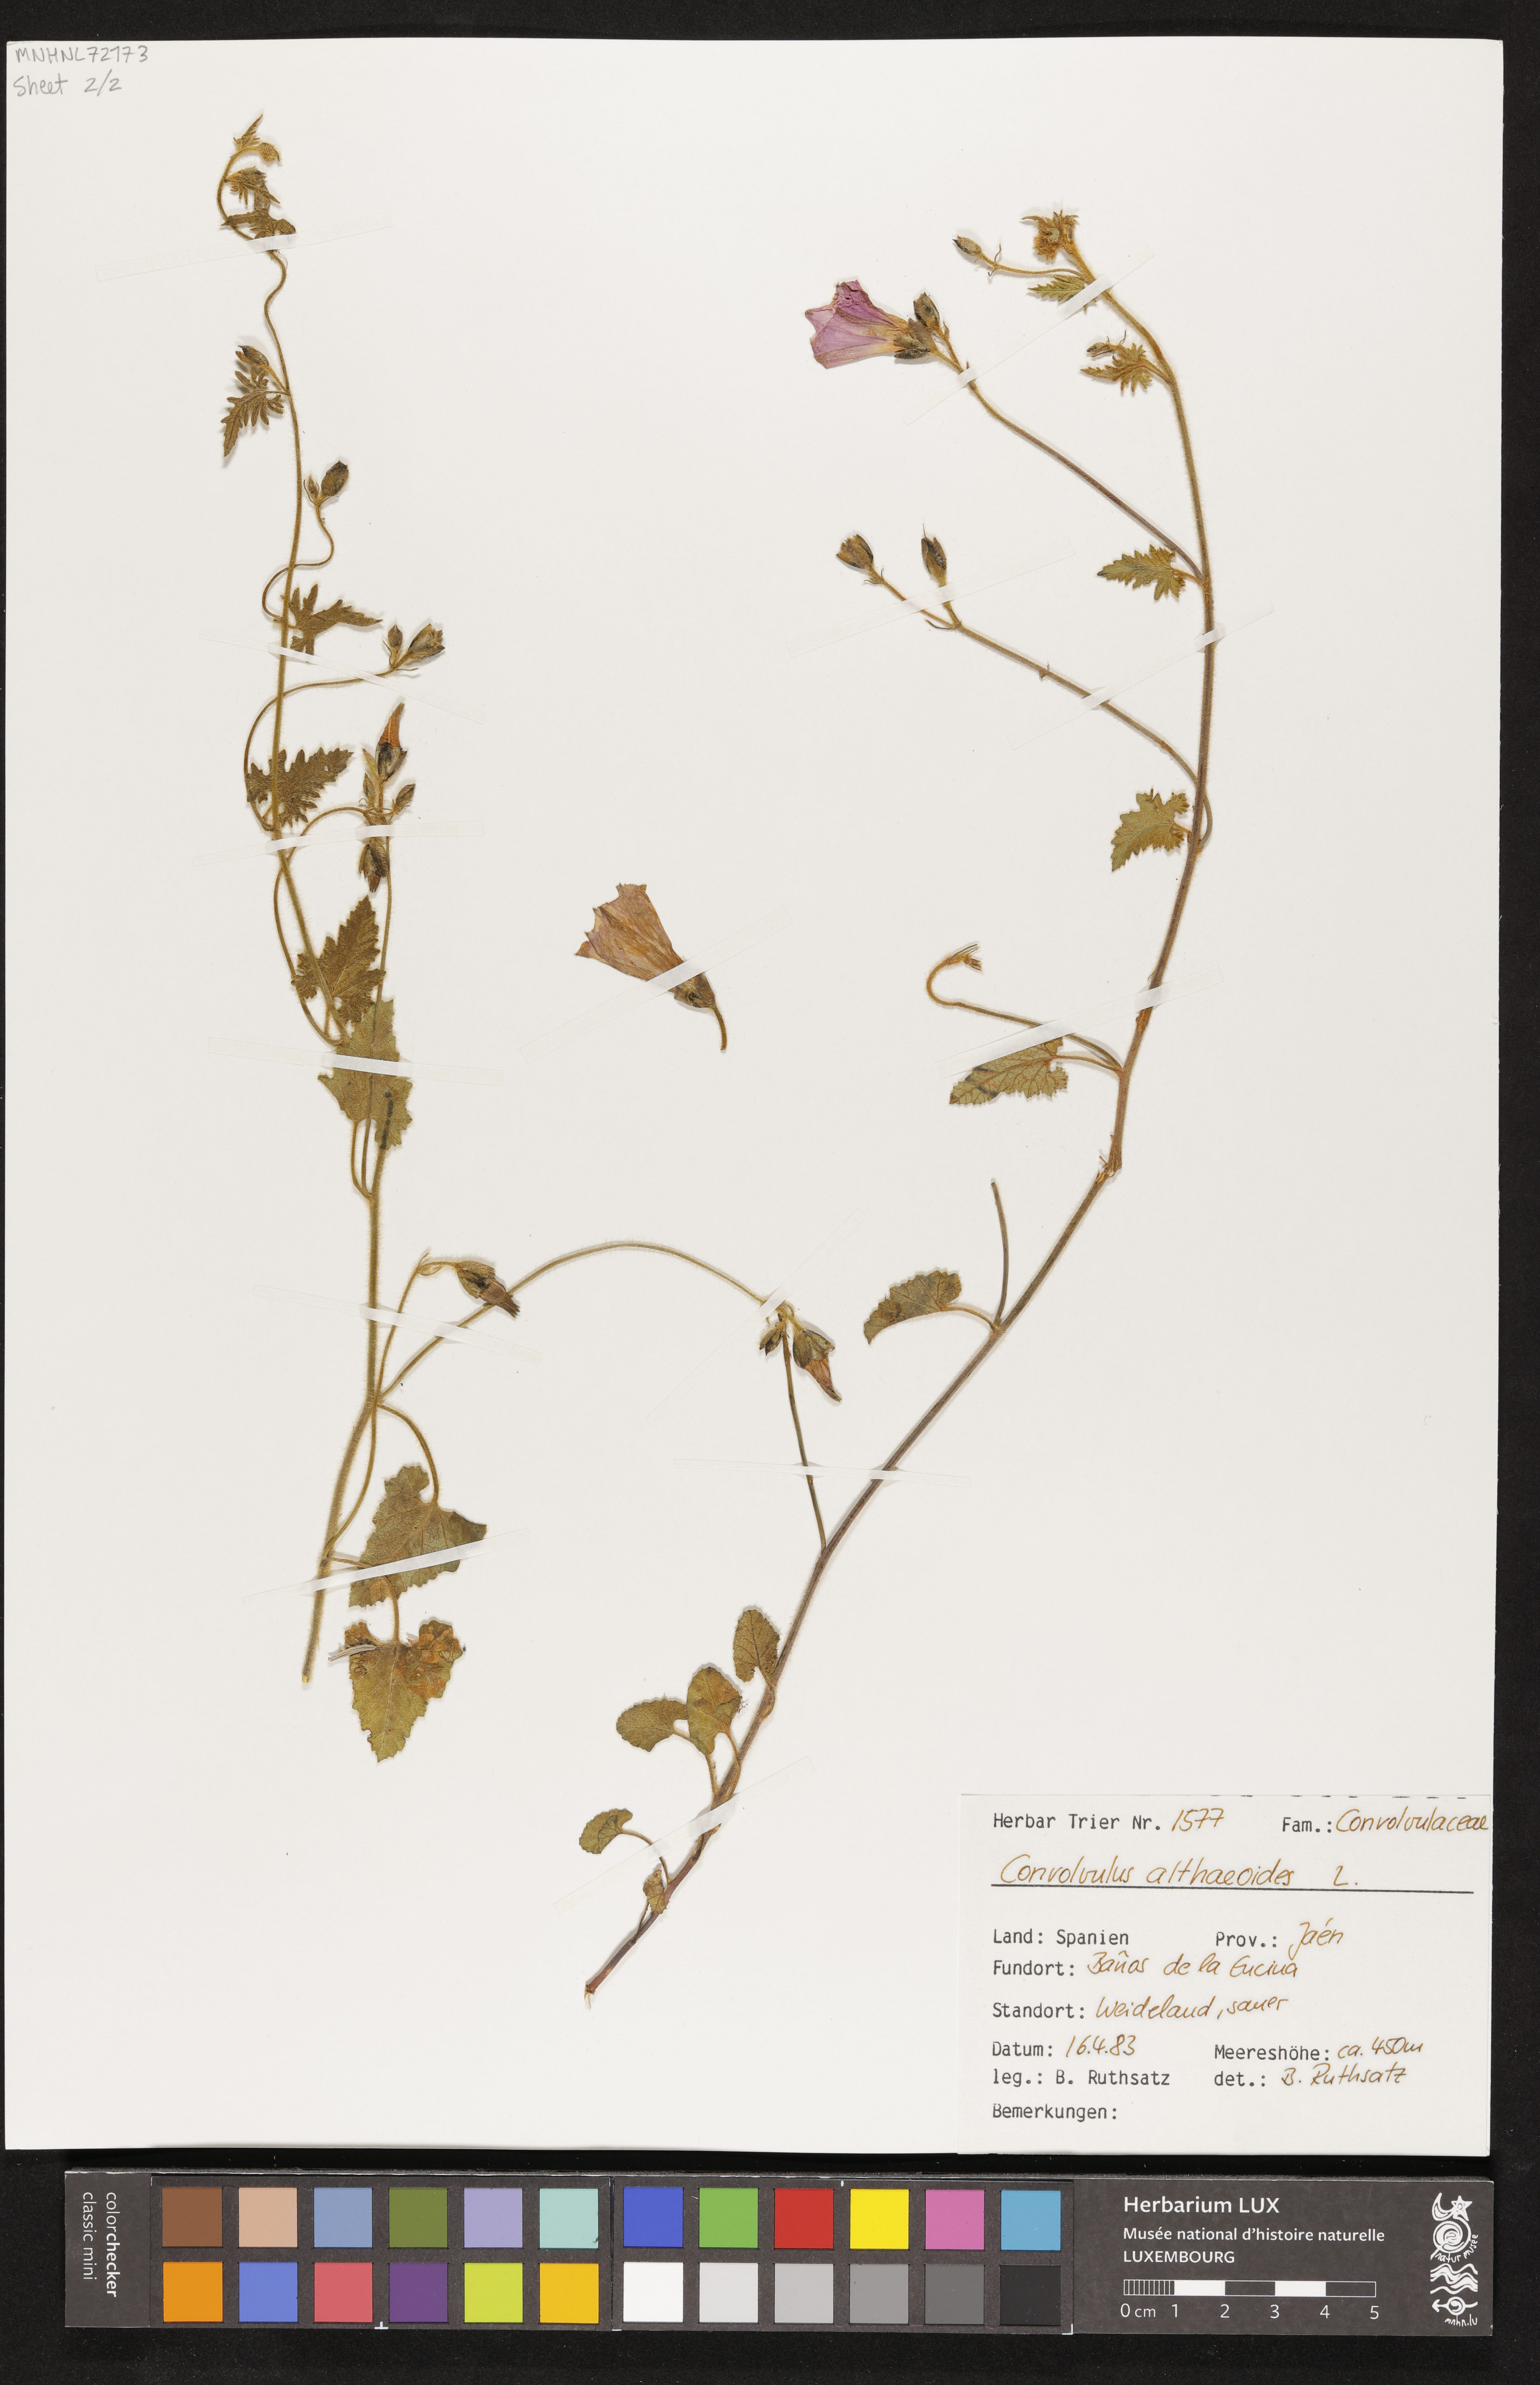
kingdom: Plantae
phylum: Tracheophyta
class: Magnoliopsida
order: Solanales
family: Convolvulaceae
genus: Convolvulus
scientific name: Convolvulus althaeoides
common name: Mallow bindweed
